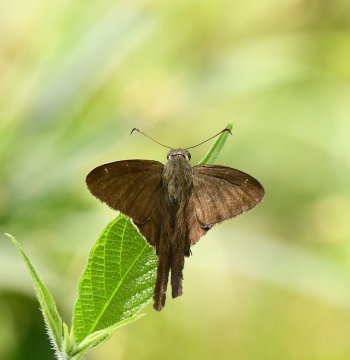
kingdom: Animalia
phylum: Arthropoda
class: Insecta
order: Lepidoptera
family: Hesperiidae
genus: Urbanus
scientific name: Urbanus procne
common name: Brown Longtail
